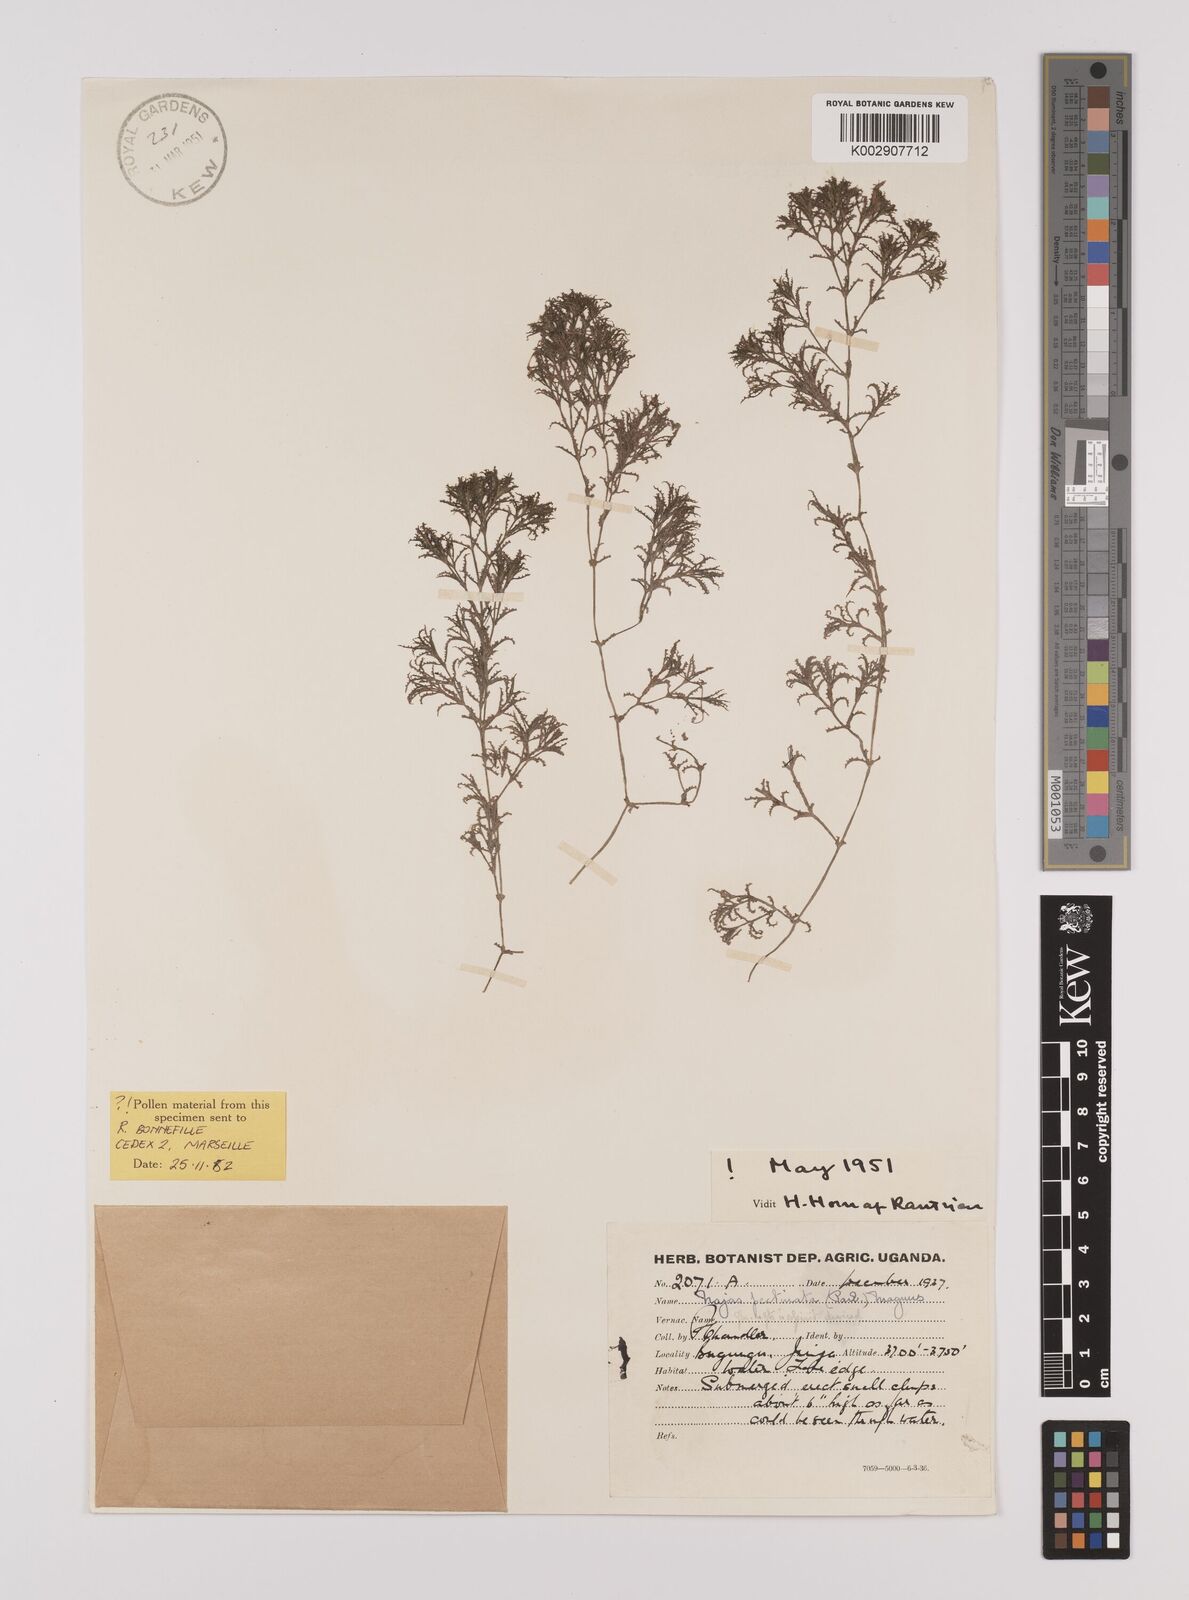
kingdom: Plantae
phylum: Tracheophyta
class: Liliopsida
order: Alismatales
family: Hydrocharitaceae
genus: Najas
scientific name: Najas horrida
